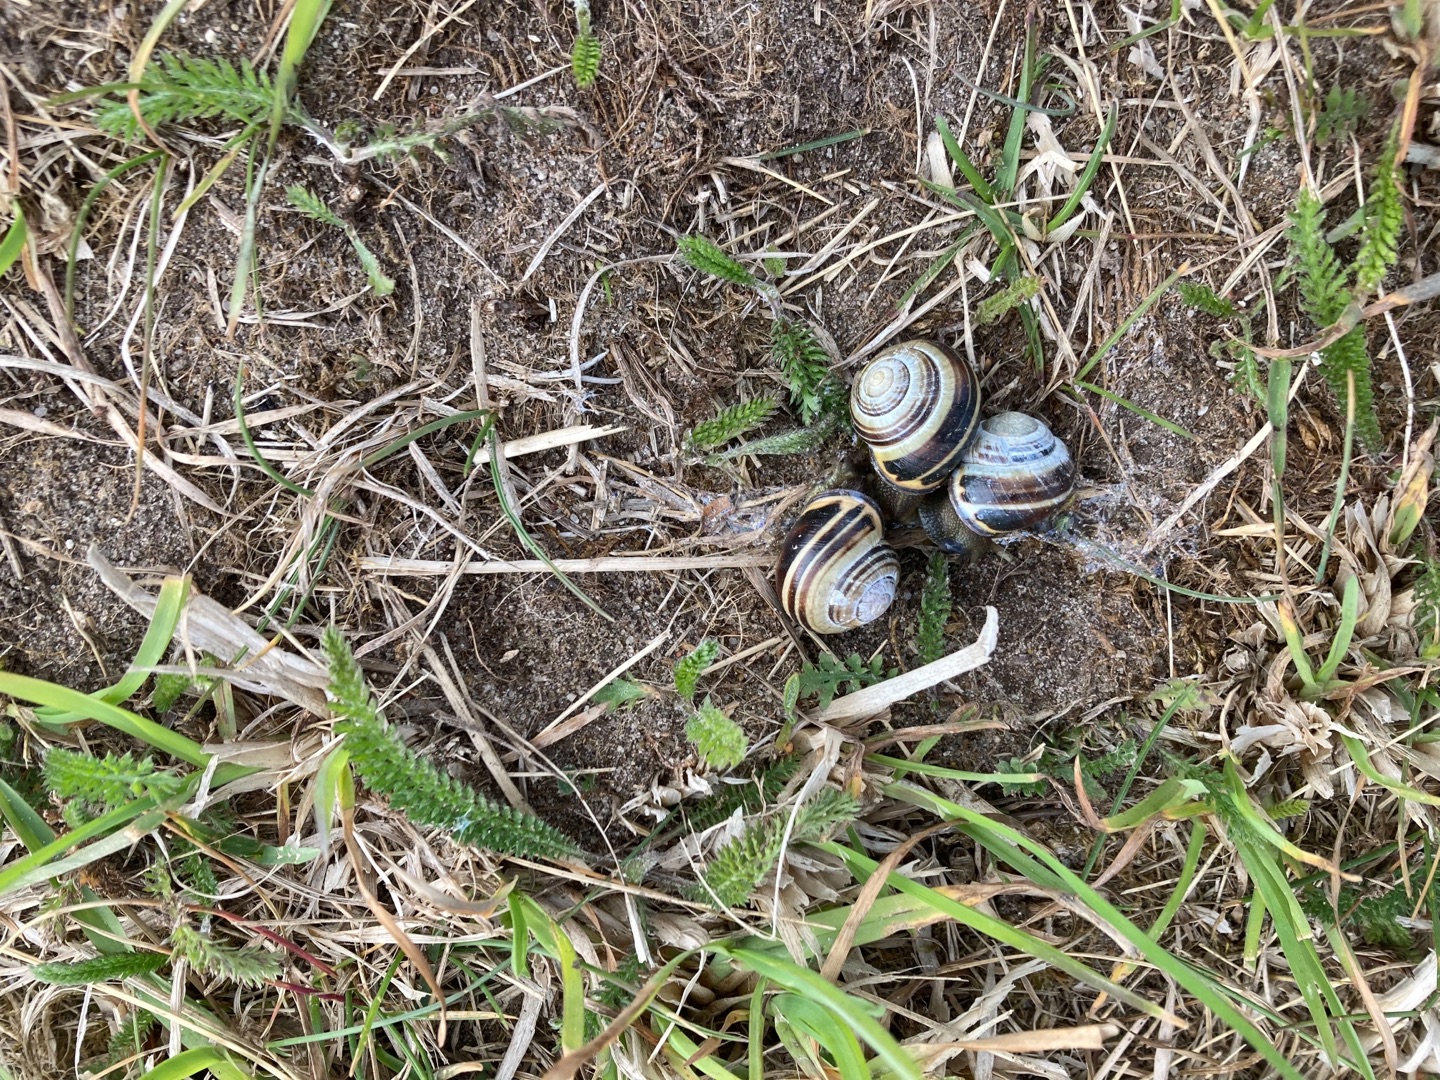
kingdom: Plantae
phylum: Tracheophyta
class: Magnoliopsida
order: Asterales
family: Asteraceae
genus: Achillea
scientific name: Achillea millefolium
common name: Almindelig røllike
